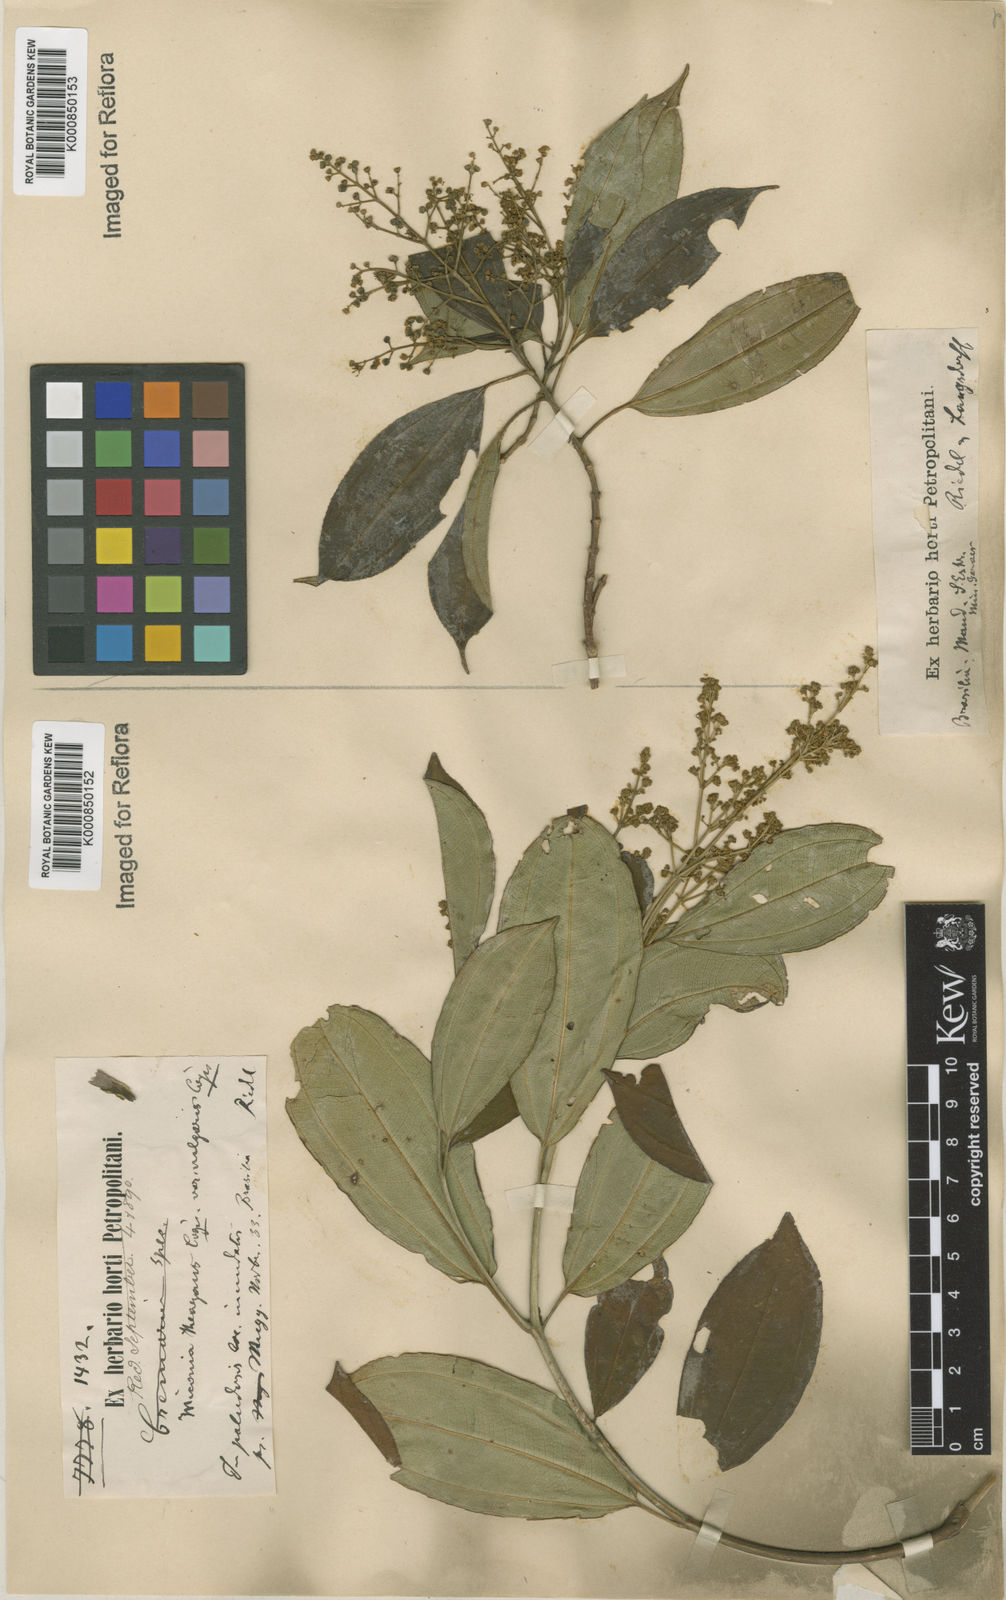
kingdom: Plantae
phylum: Tracheophyta
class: Magnoliopsida
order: Myrtales
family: Melastomataceae
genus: Miconia
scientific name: Miconia
